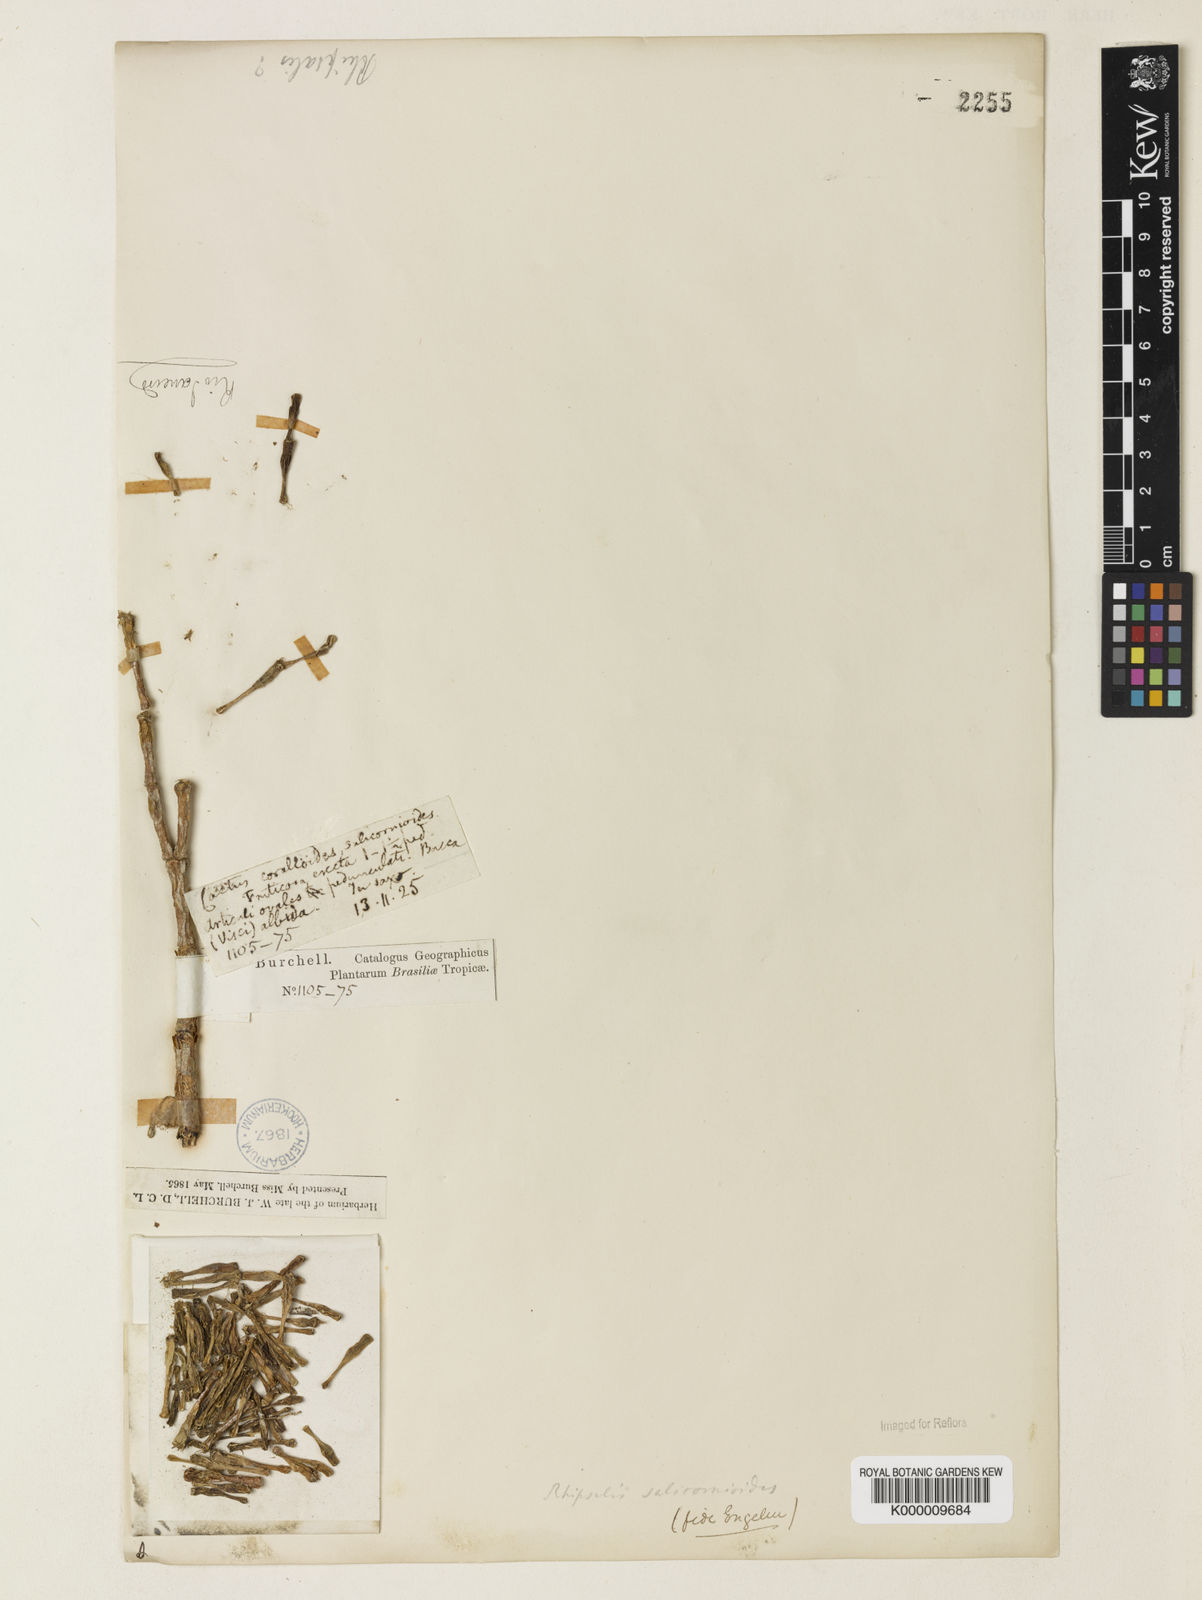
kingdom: Plantae
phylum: Tracheophyta
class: Magnoliopsida
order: Caryophyllales
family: Cactaceae
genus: Hatiora
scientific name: Hatiora
